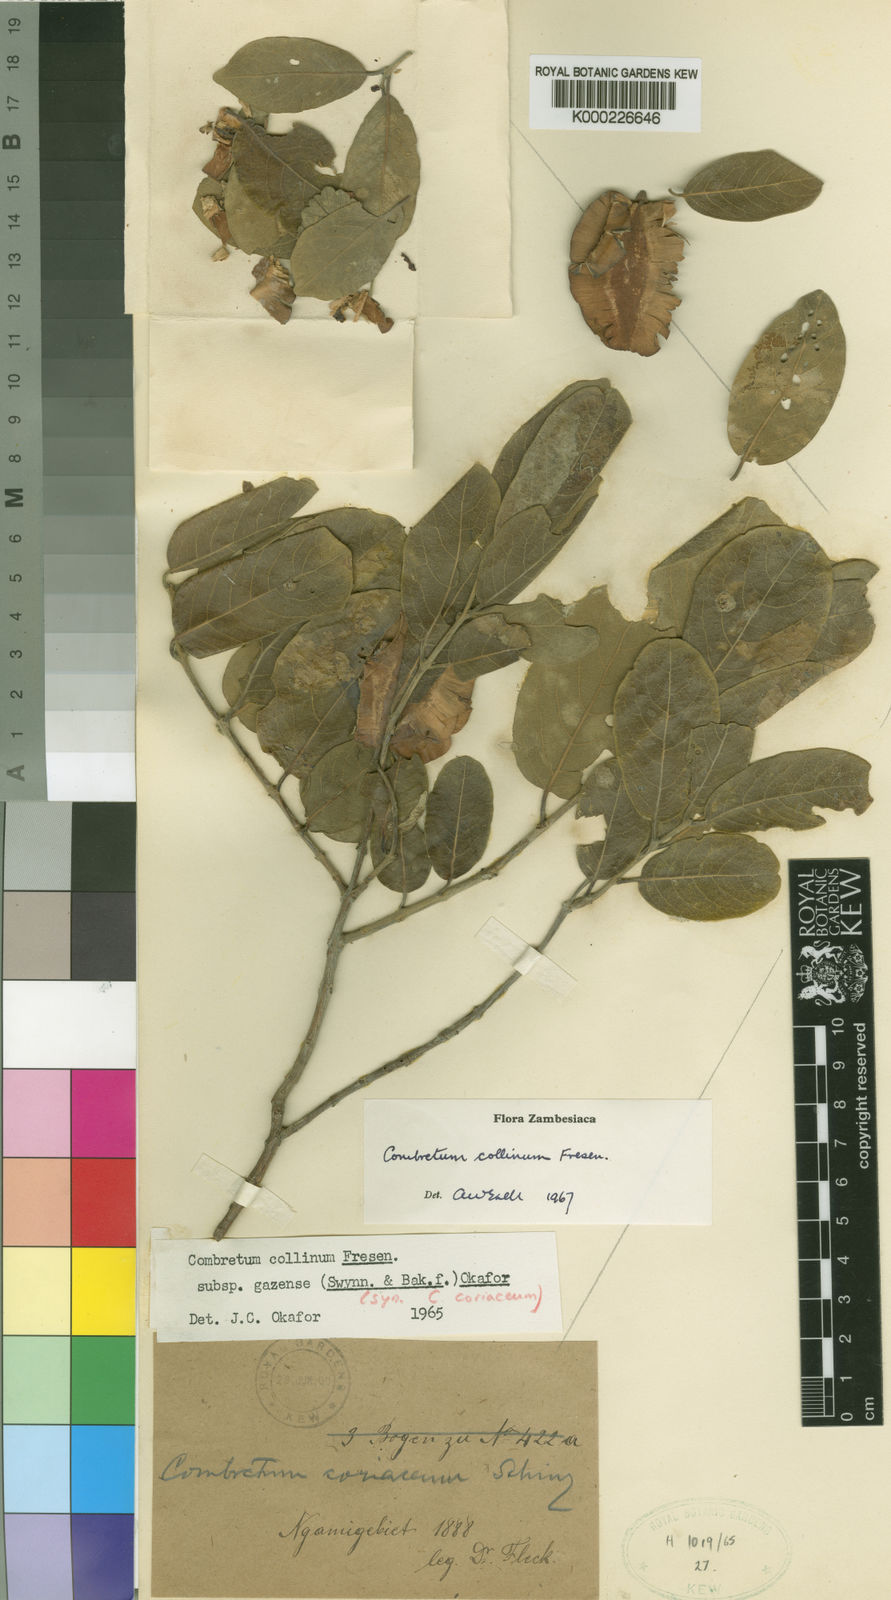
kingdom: Plantae
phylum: Tracheophyta
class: Magnoliopsida
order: Myrtales
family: Combretaceae
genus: Combretum
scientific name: Combretum collinum
